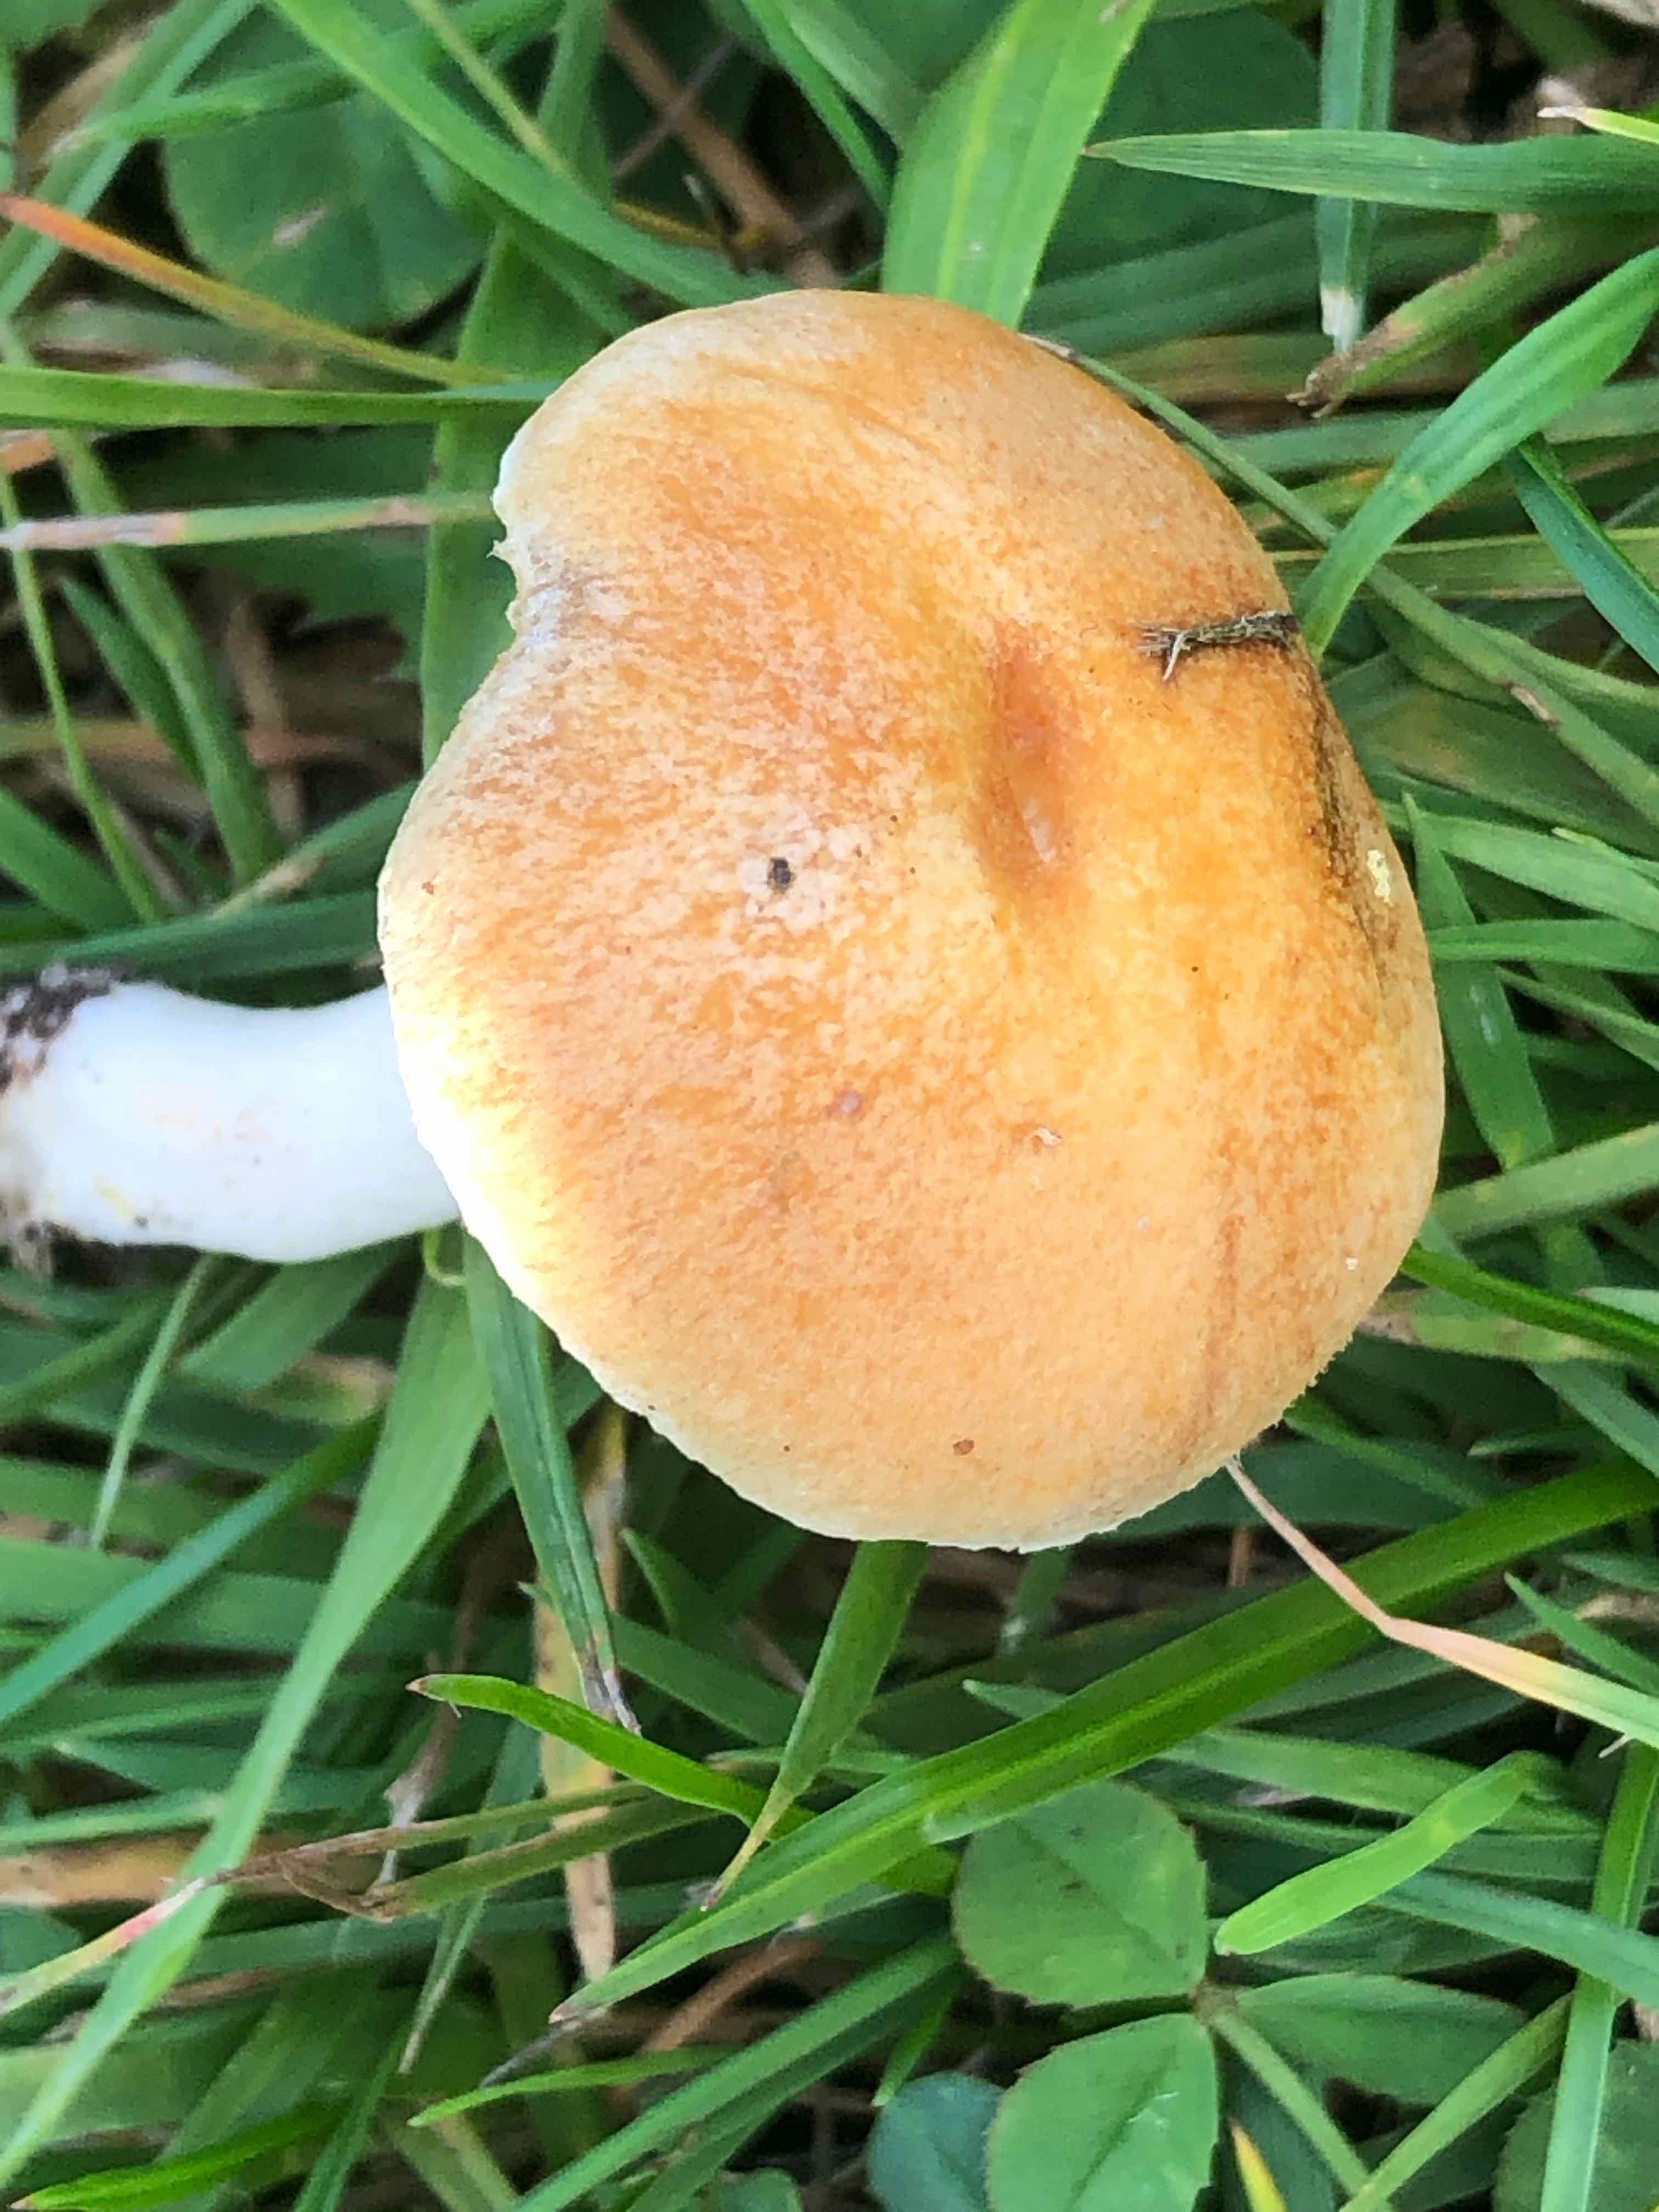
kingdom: Fungi
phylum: Basidiomycota
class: Agaricomycetes
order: Agaricales
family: Hymenogastraceae
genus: Psilocybe
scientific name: Psilocybe coronilla
